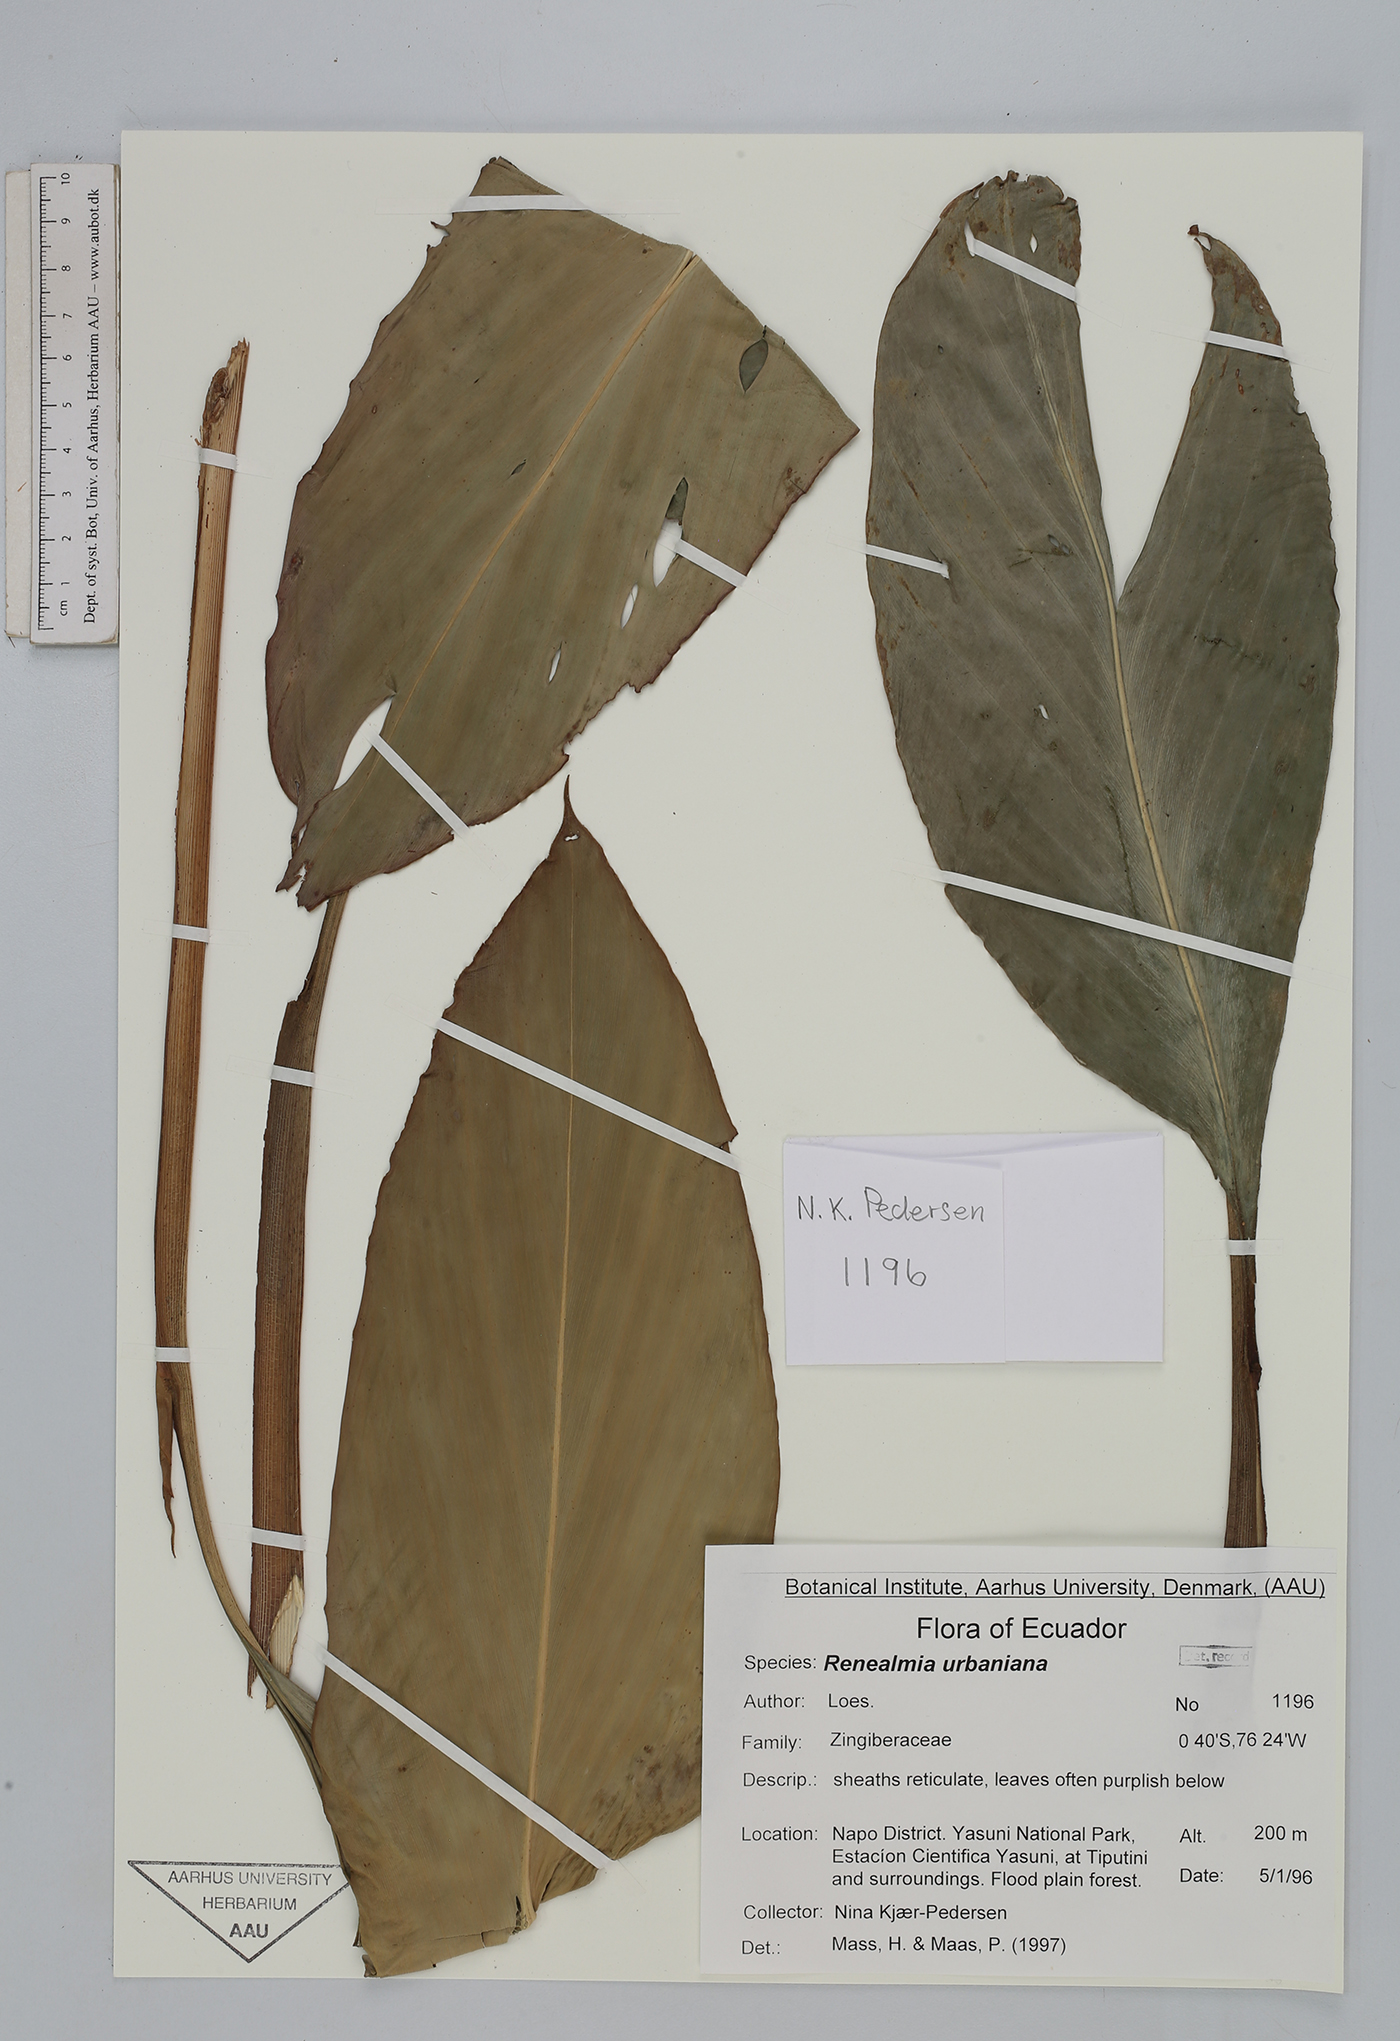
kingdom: Plantae
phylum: Tracheophyta
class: Liliopsida
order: Zingiberales
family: Zingiberaceae
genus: Renealmia
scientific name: Renealmia urbaniana
